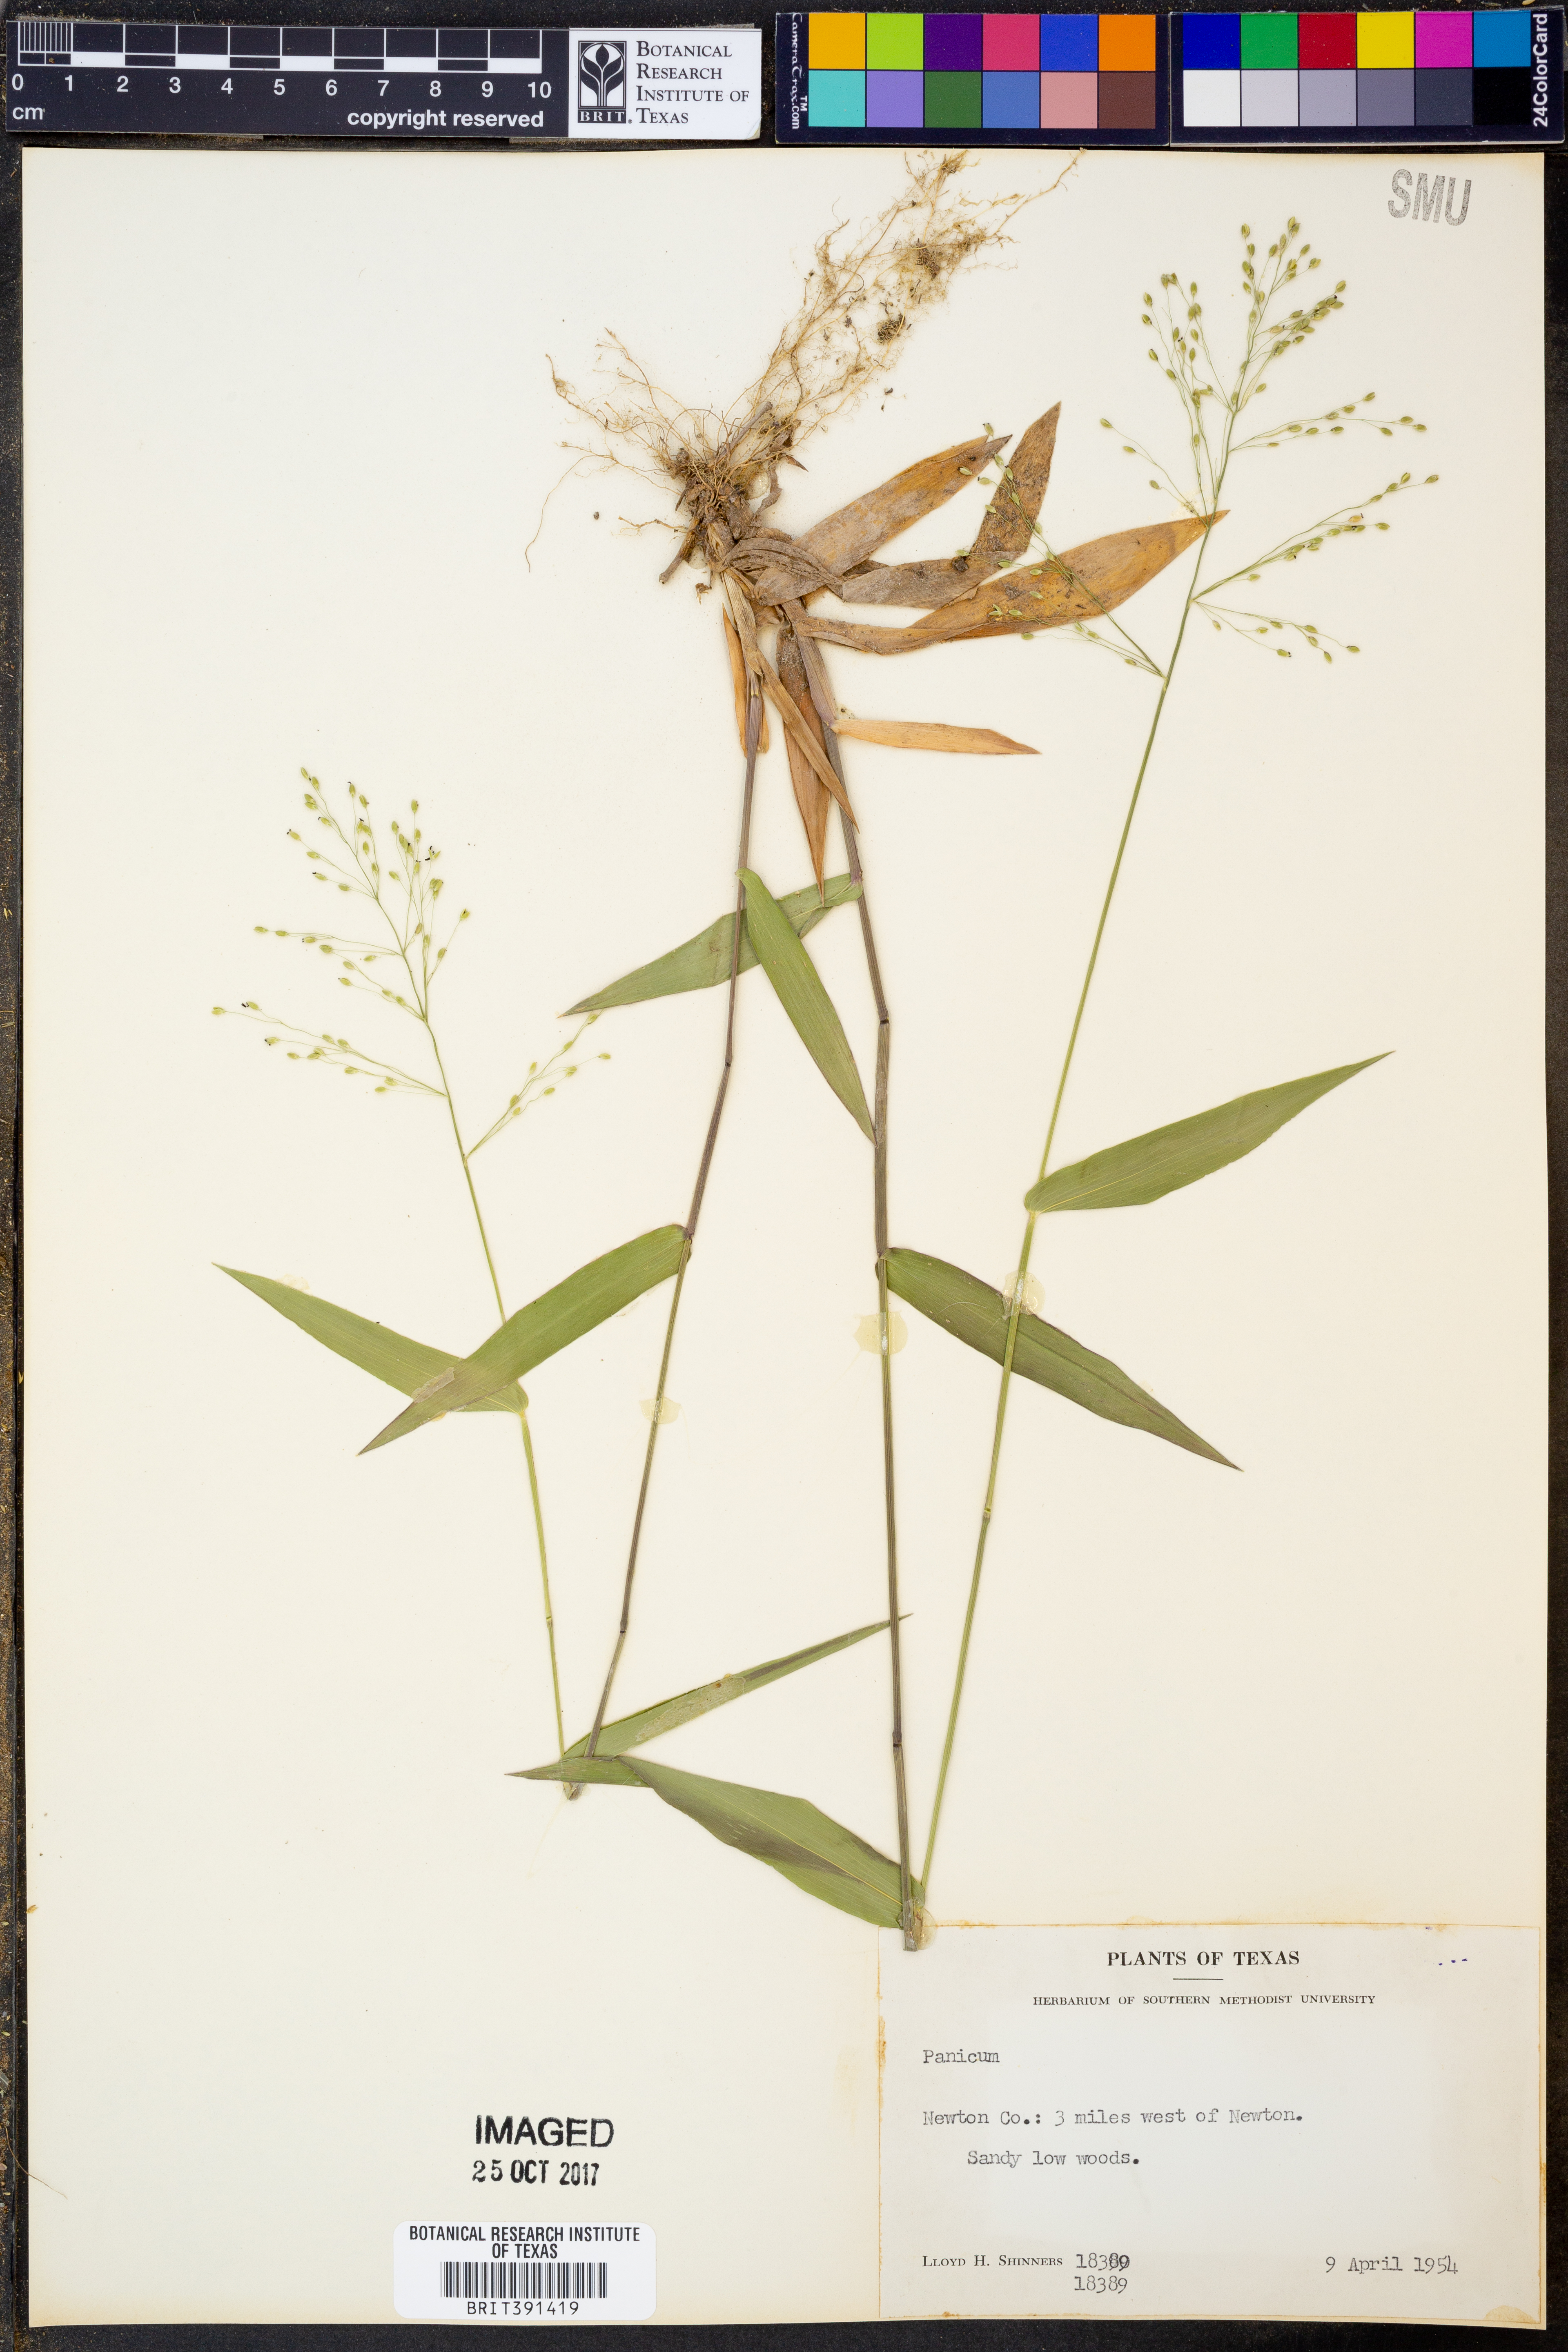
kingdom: Plantae
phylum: Tracheophyta
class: Liliopsida
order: Poales
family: Poaceae
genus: Panicum
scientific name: Panicum
